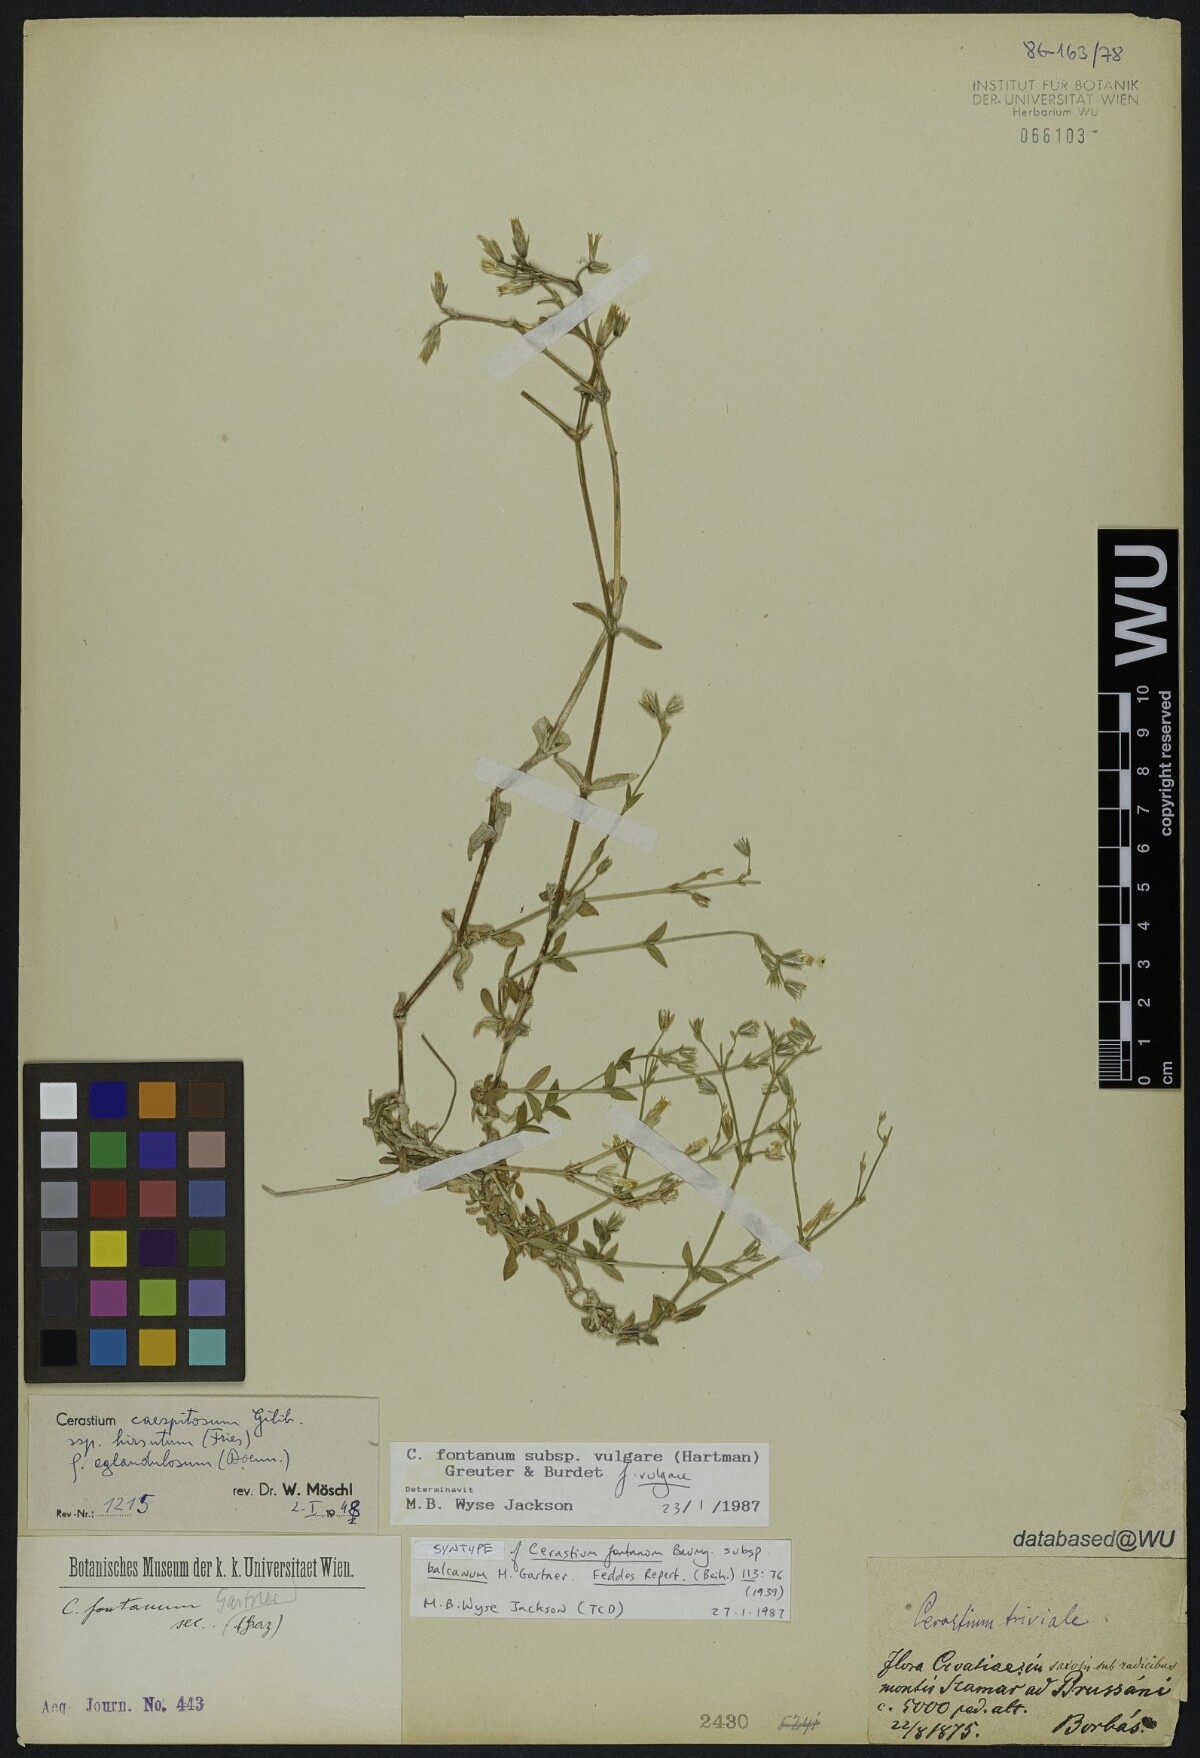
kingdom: Plantae
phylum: Tracheophyta
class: Magnoliopsida
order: Caryophyllales
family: Caryophyllaceae
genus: Cerastium
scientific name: Cerastium holosteoides
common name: Big chickweed
